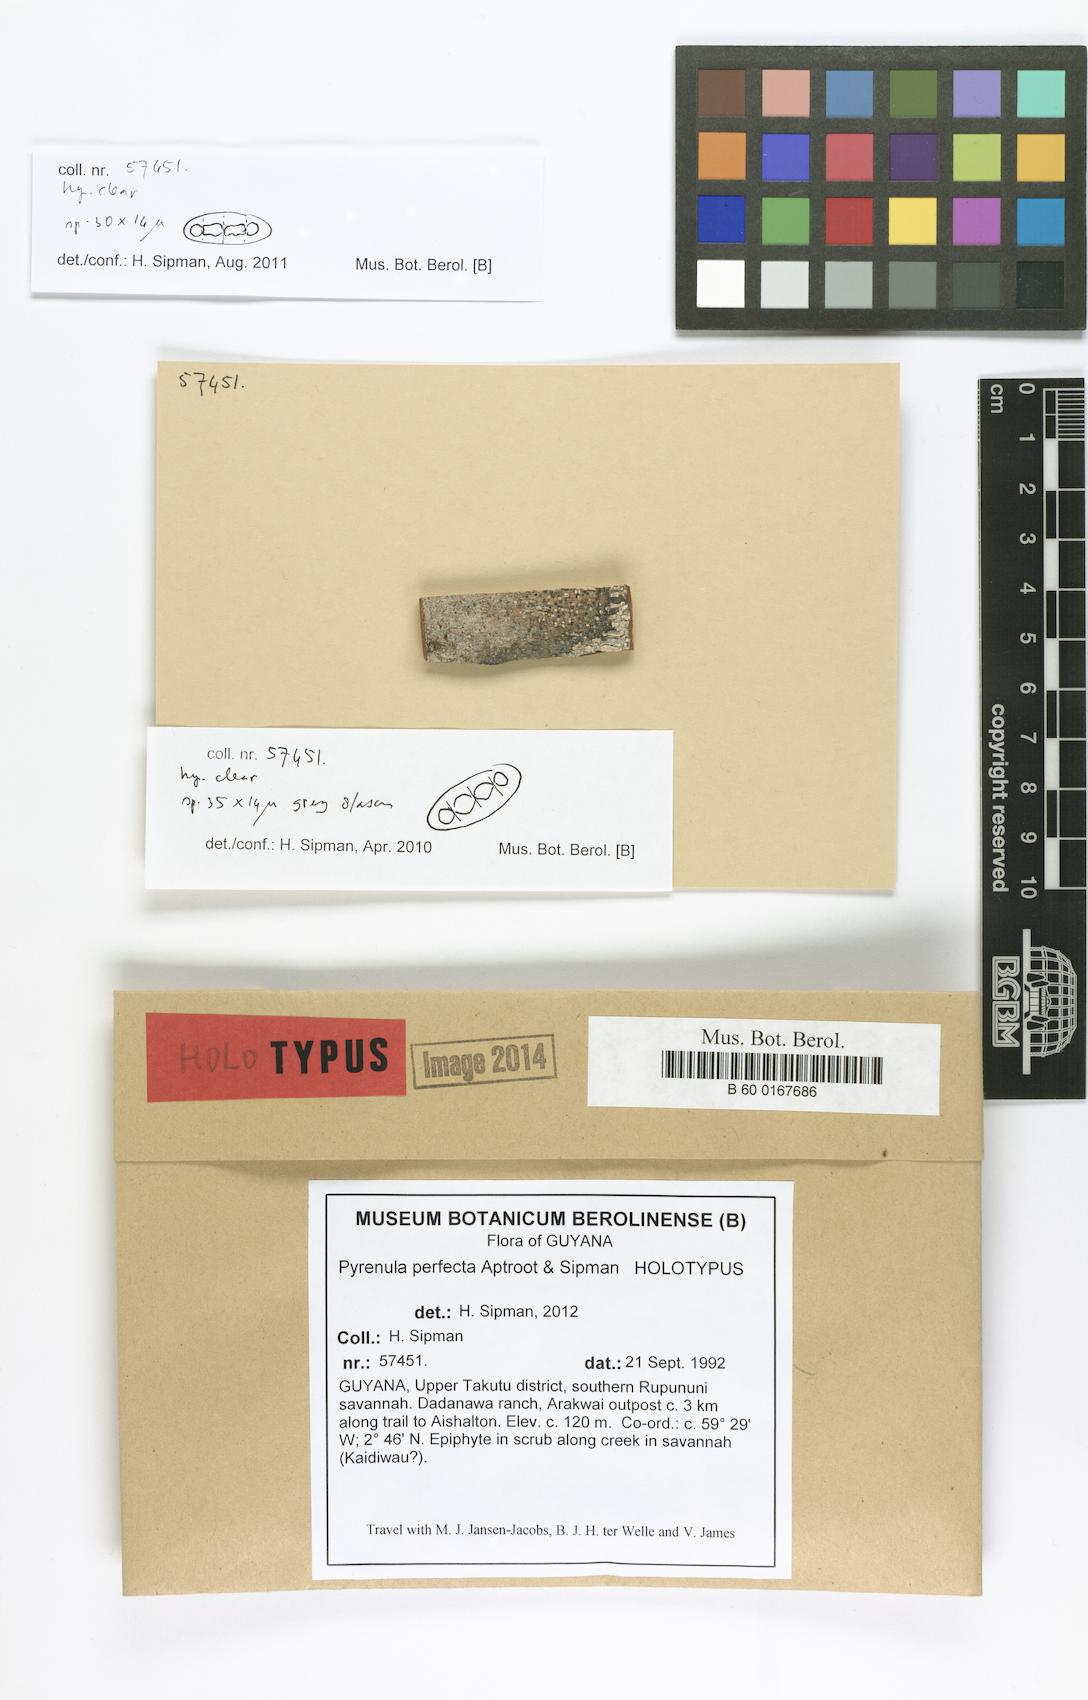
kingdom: Fungi
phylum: Ascomycota
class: Eurotiomycetes
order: Pyrenulales
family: Pyrenulaceae
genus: Pyrenula
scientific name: Pyrenula perfecta
